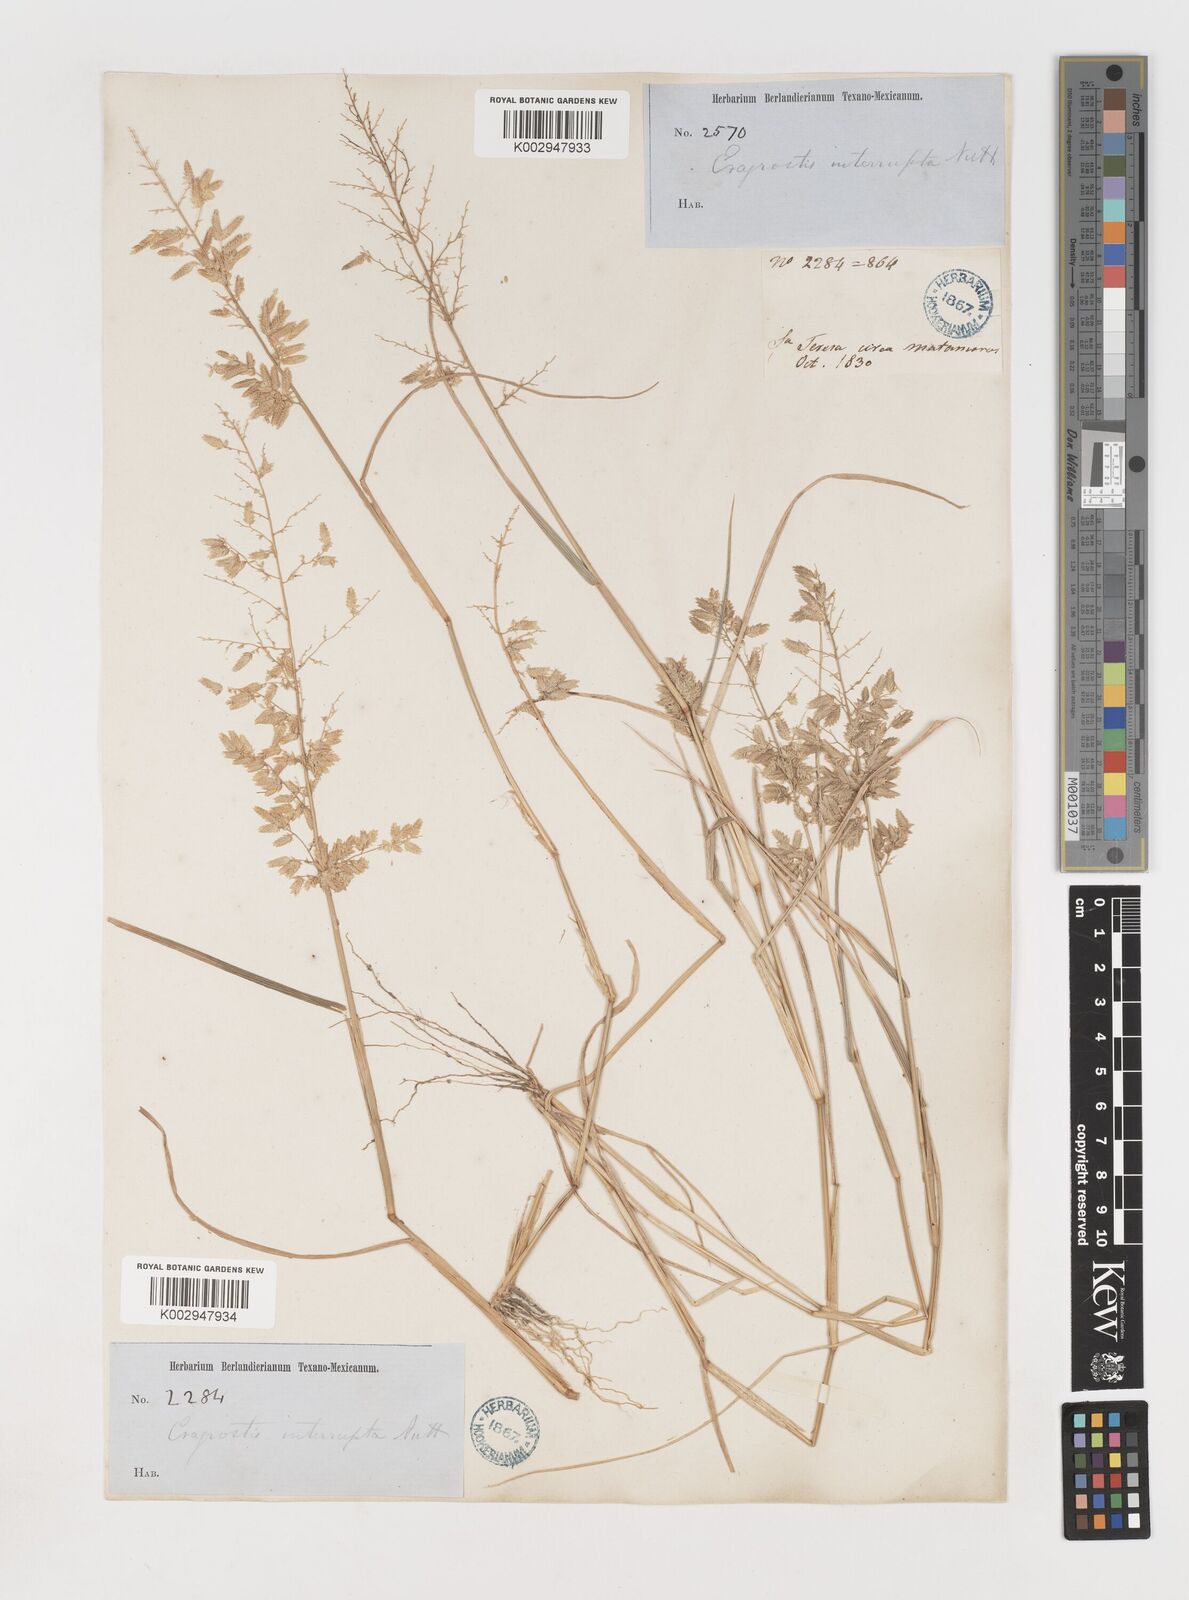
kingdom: Plantae
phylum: Tracheophyta
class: Liliopsida
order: Poales
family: Poaceae
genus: Eragrostis
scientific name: Eragrostis
